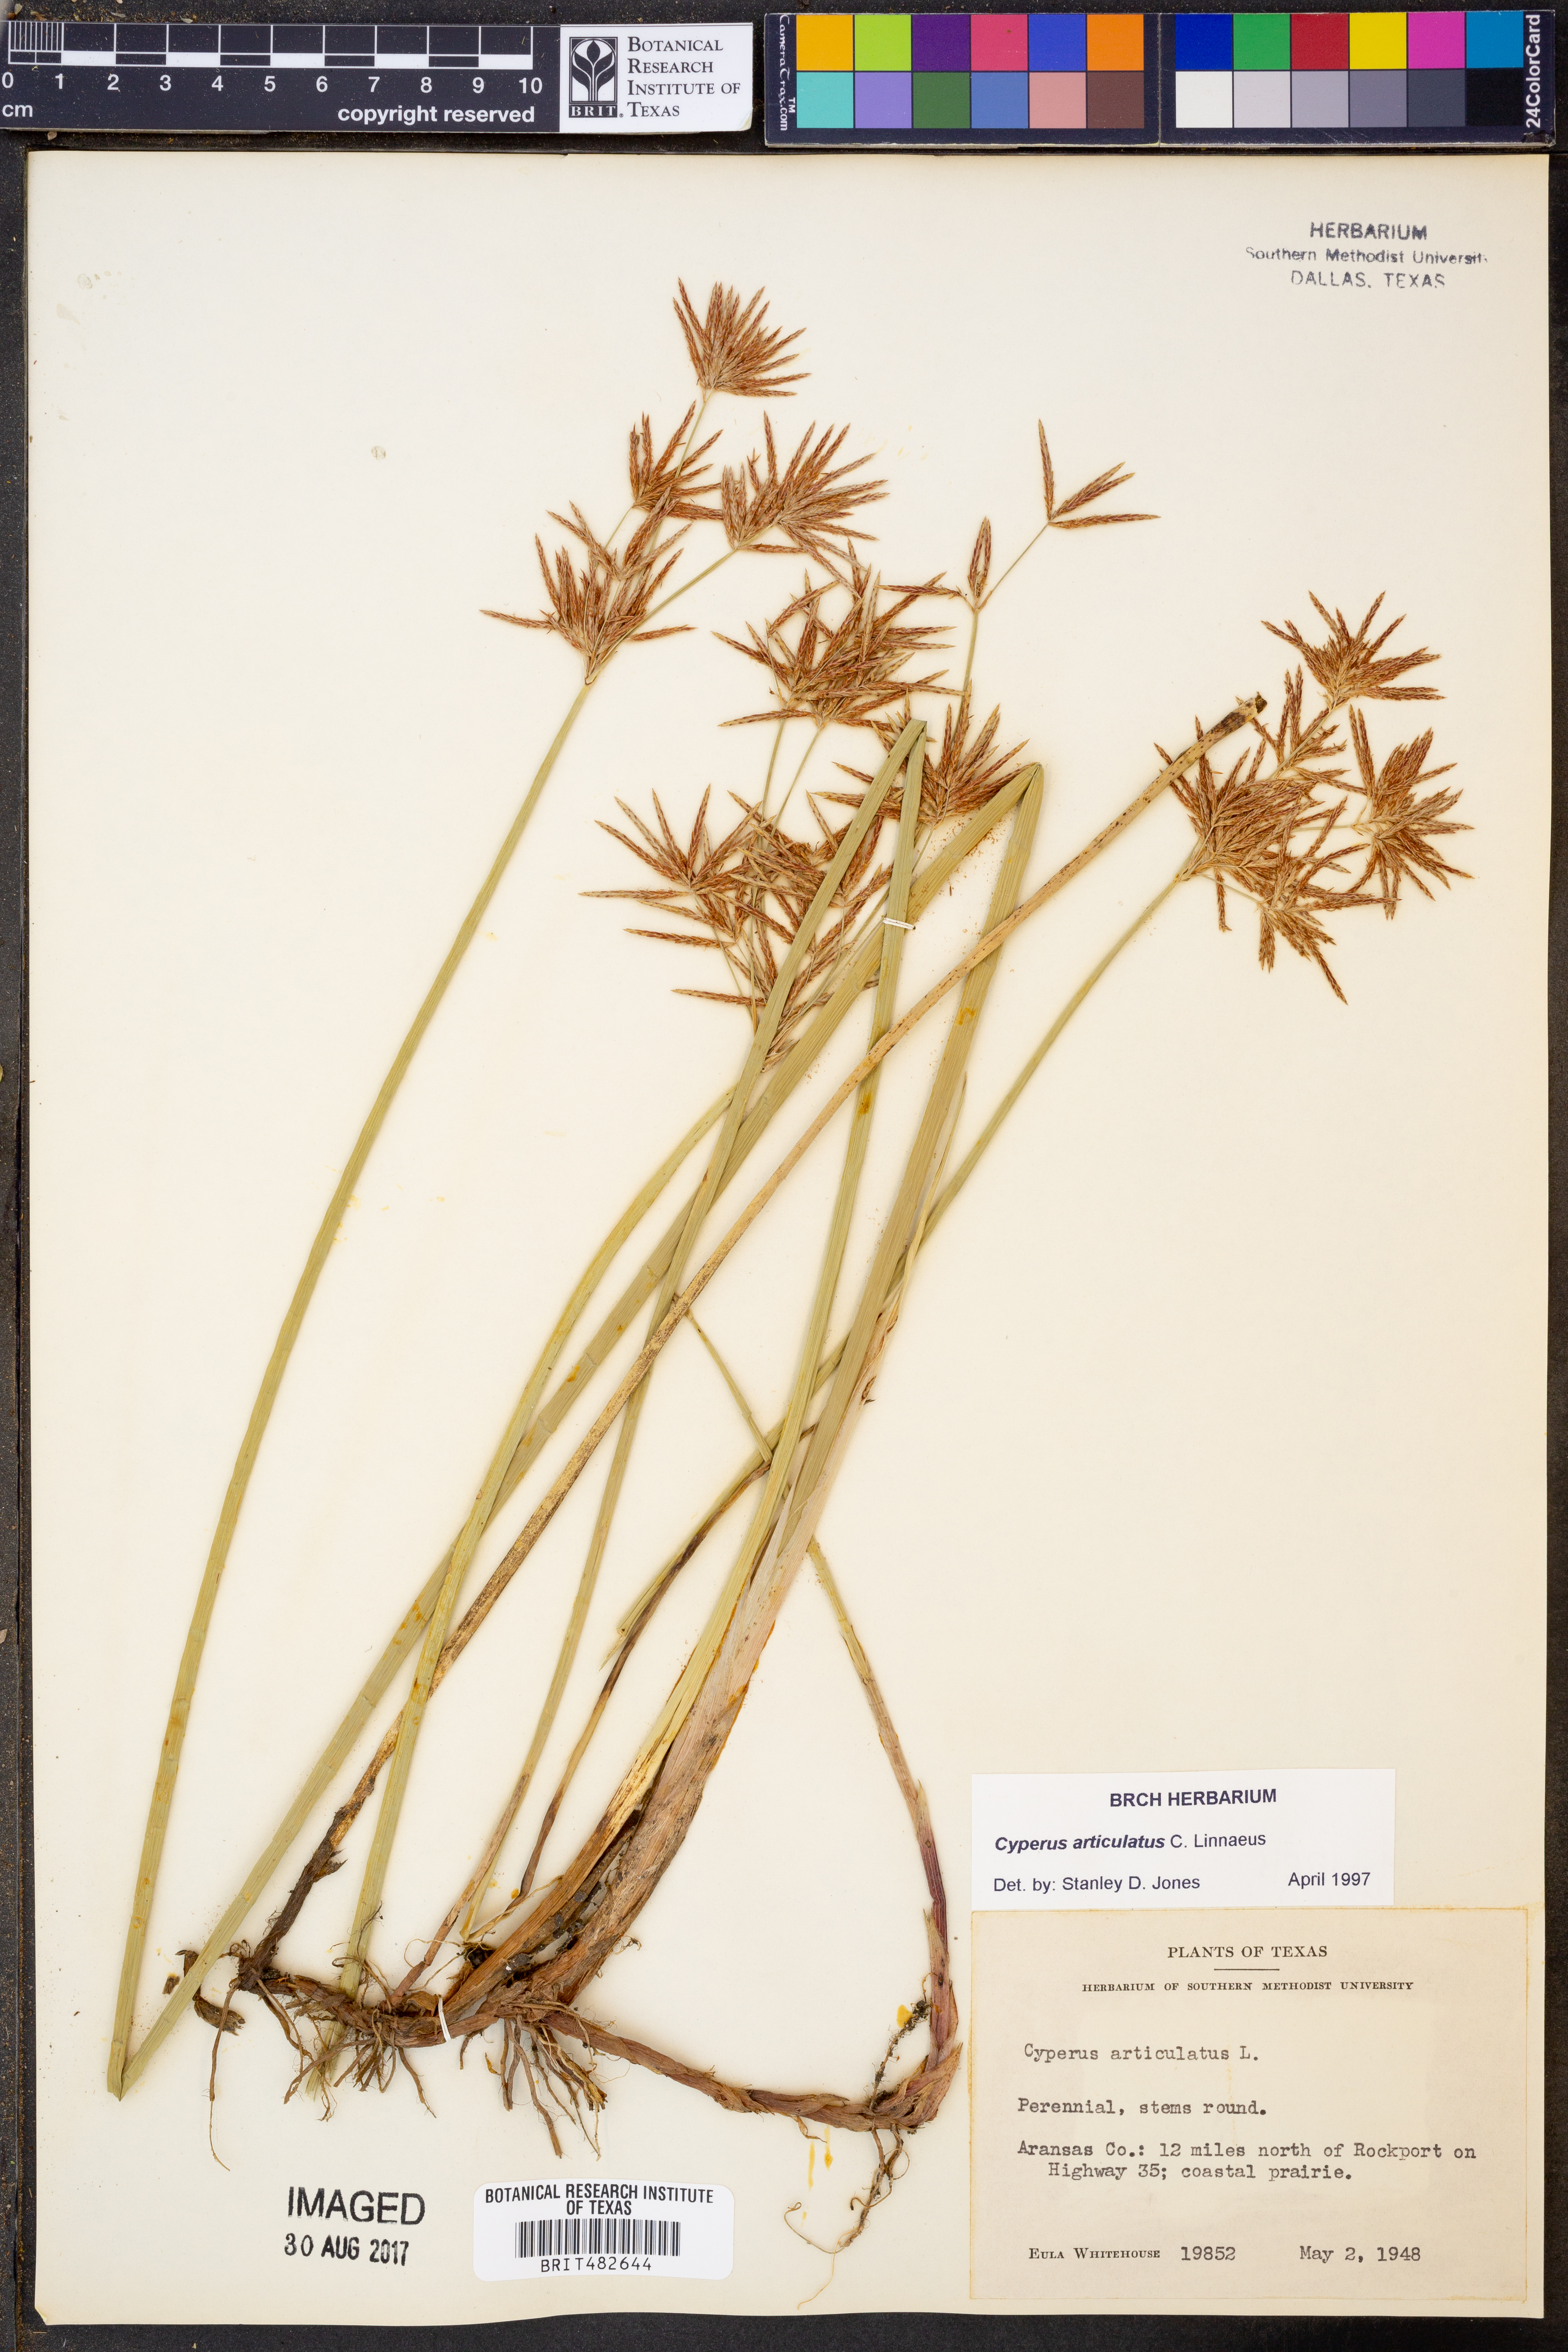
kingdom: Plantae
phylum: Tracheophyta
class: Liliopsida
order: Poales
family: Cyperaceae
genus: Cyperus
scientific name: Cyperus articulatus
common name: Jointed flatsedge
